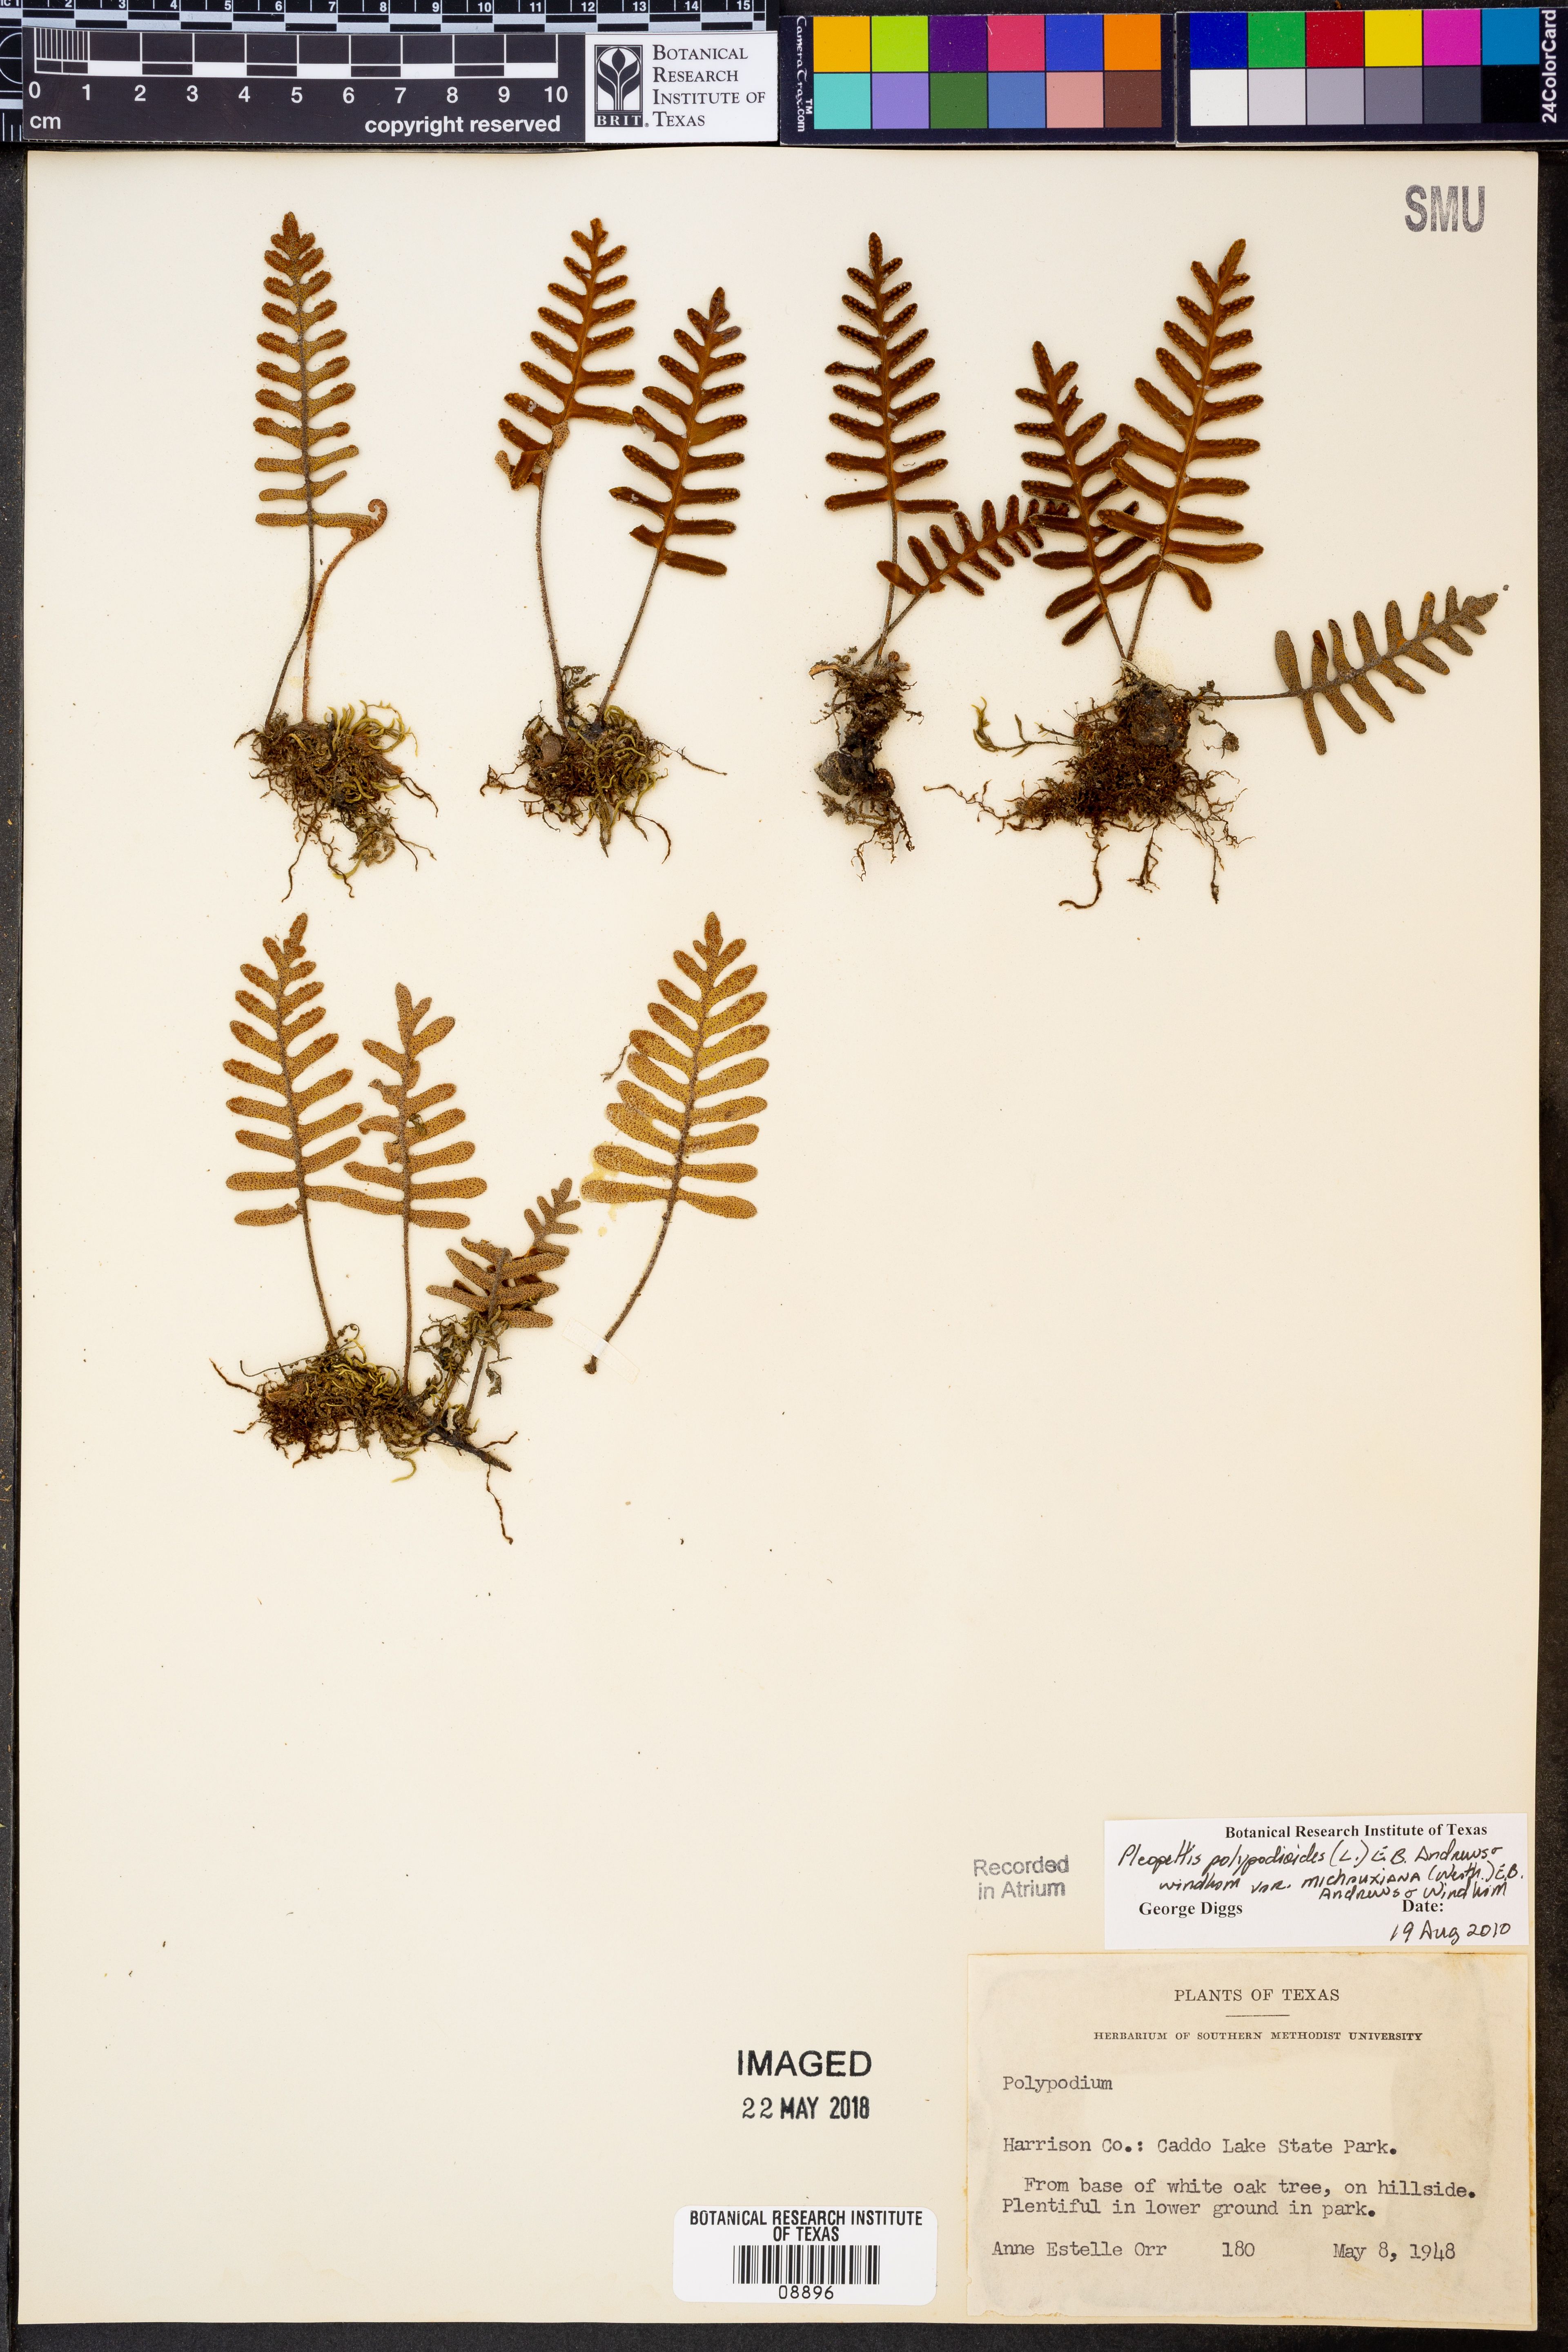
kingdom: Plantae
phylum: Tracheophyta
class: Polypodiopsida
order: Polypodiales
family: Polypodiaceae
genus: Pleopeltis
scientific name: Pleopeltis michauxiana
